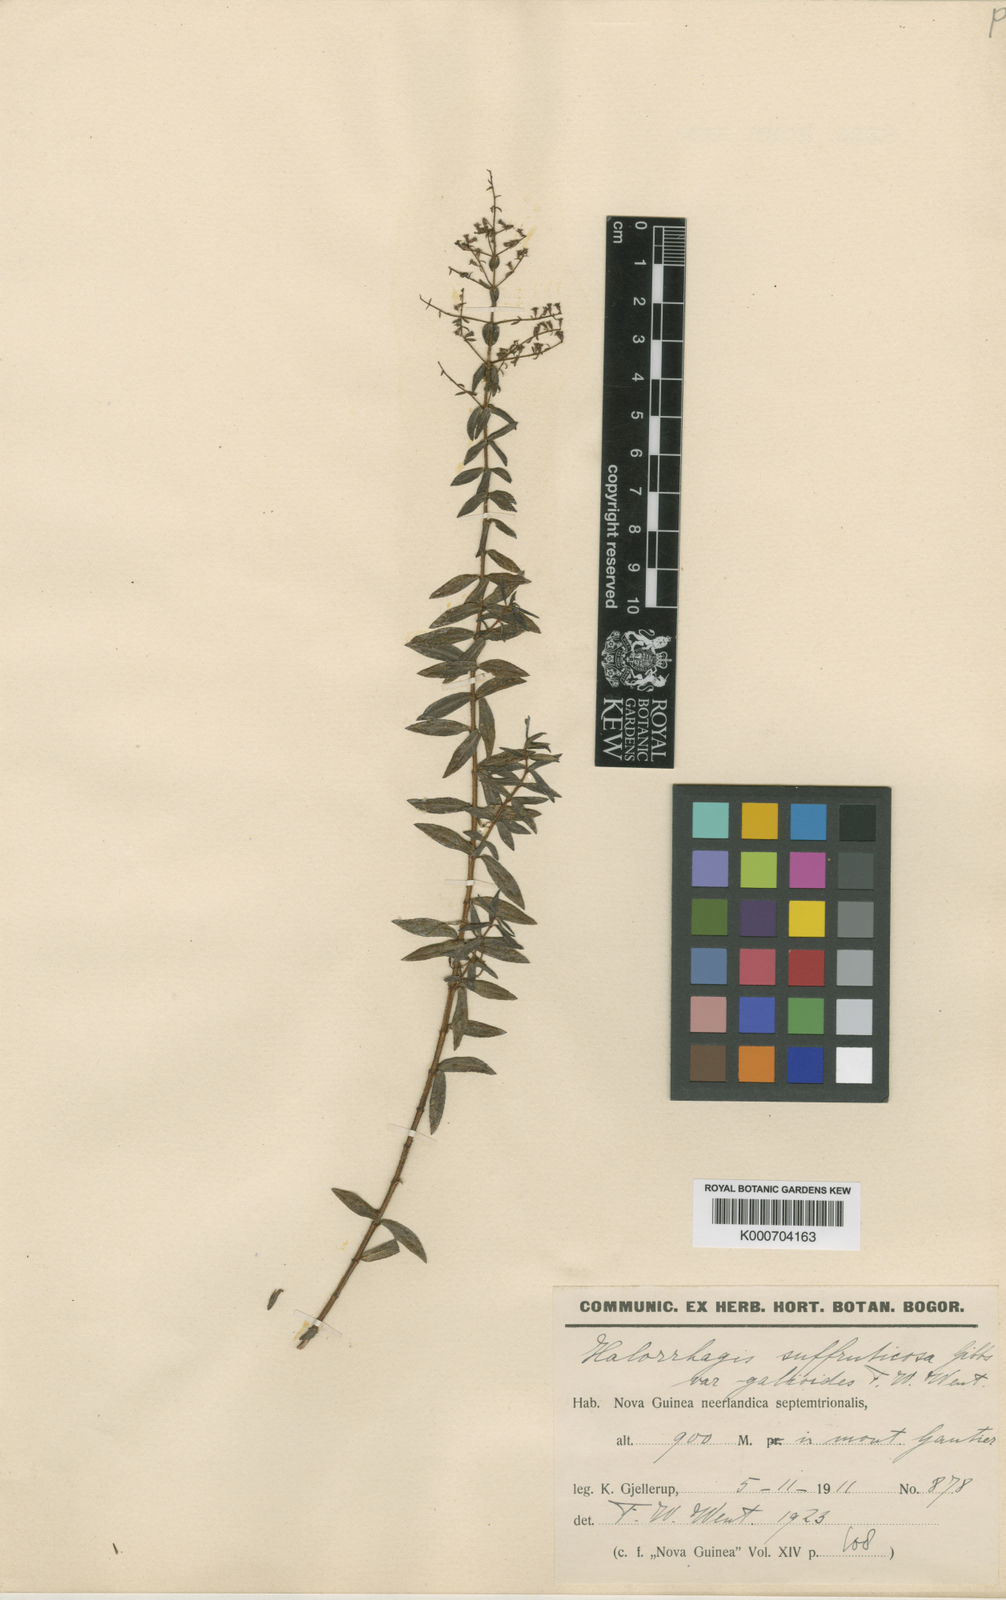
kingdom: Plantae
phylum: Tracheophyta
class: Magnoliopsida
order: Saxifragales
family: Haloragaceae
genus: Gonocarpus
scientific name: Gonocarpus
